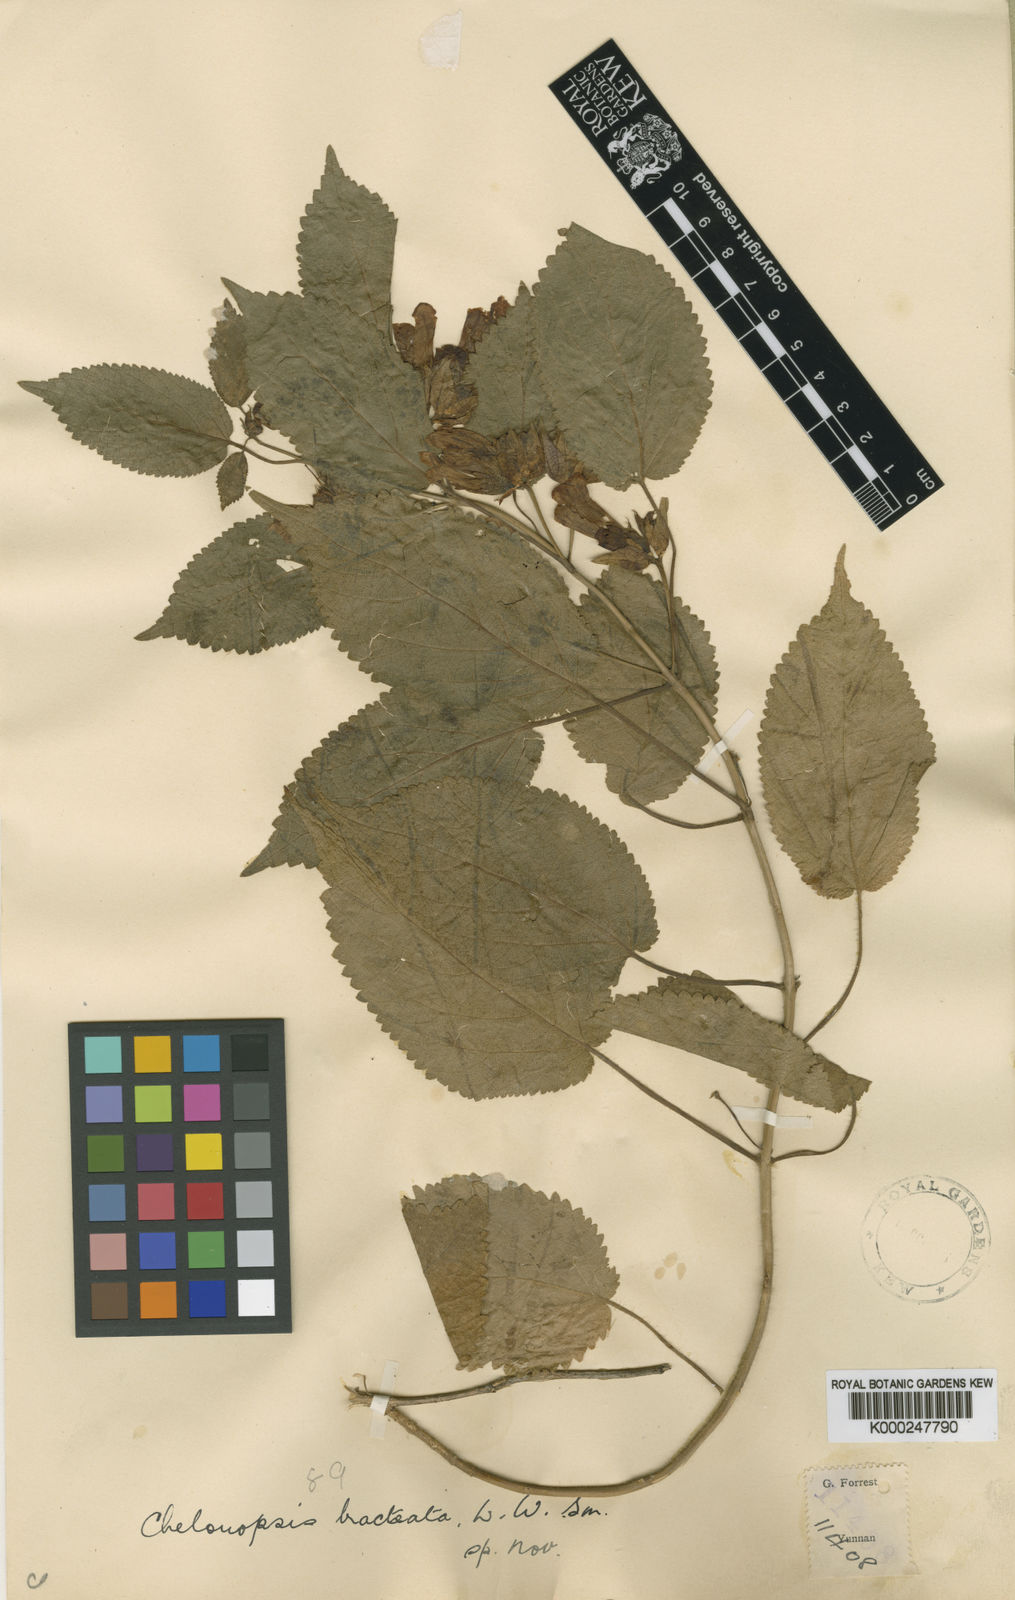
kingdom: Plantae
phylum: Tracheophyta
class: Magnoliopsida
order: Lamiales
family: Lamiaceae
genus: Chelonopsis
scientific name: Chelonopsis bracteata
